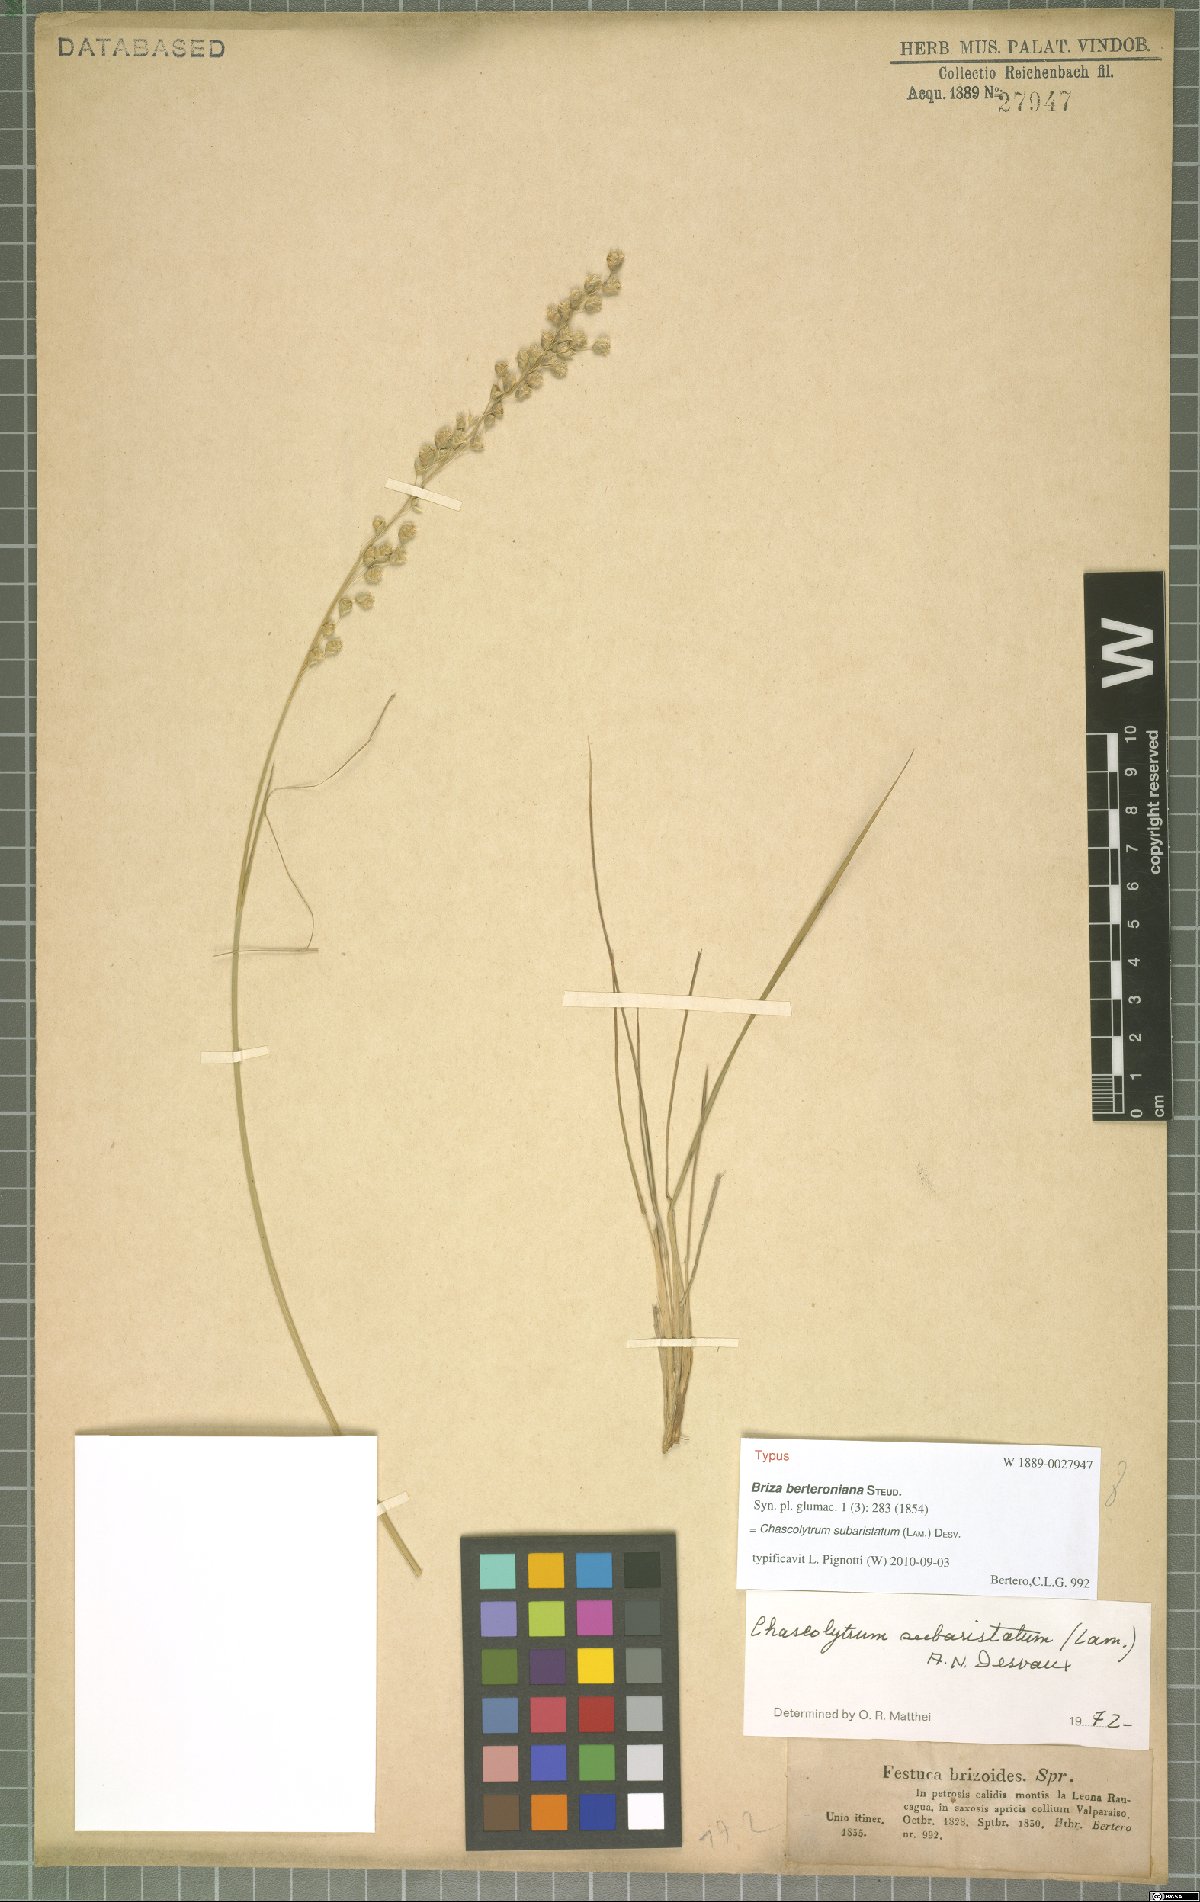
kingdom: Plantae
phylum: Tracheophyta
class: Liliopsida
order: Poales
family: Poaceae
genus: Chascolytrum
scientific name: Chascolytrum subaristatum
